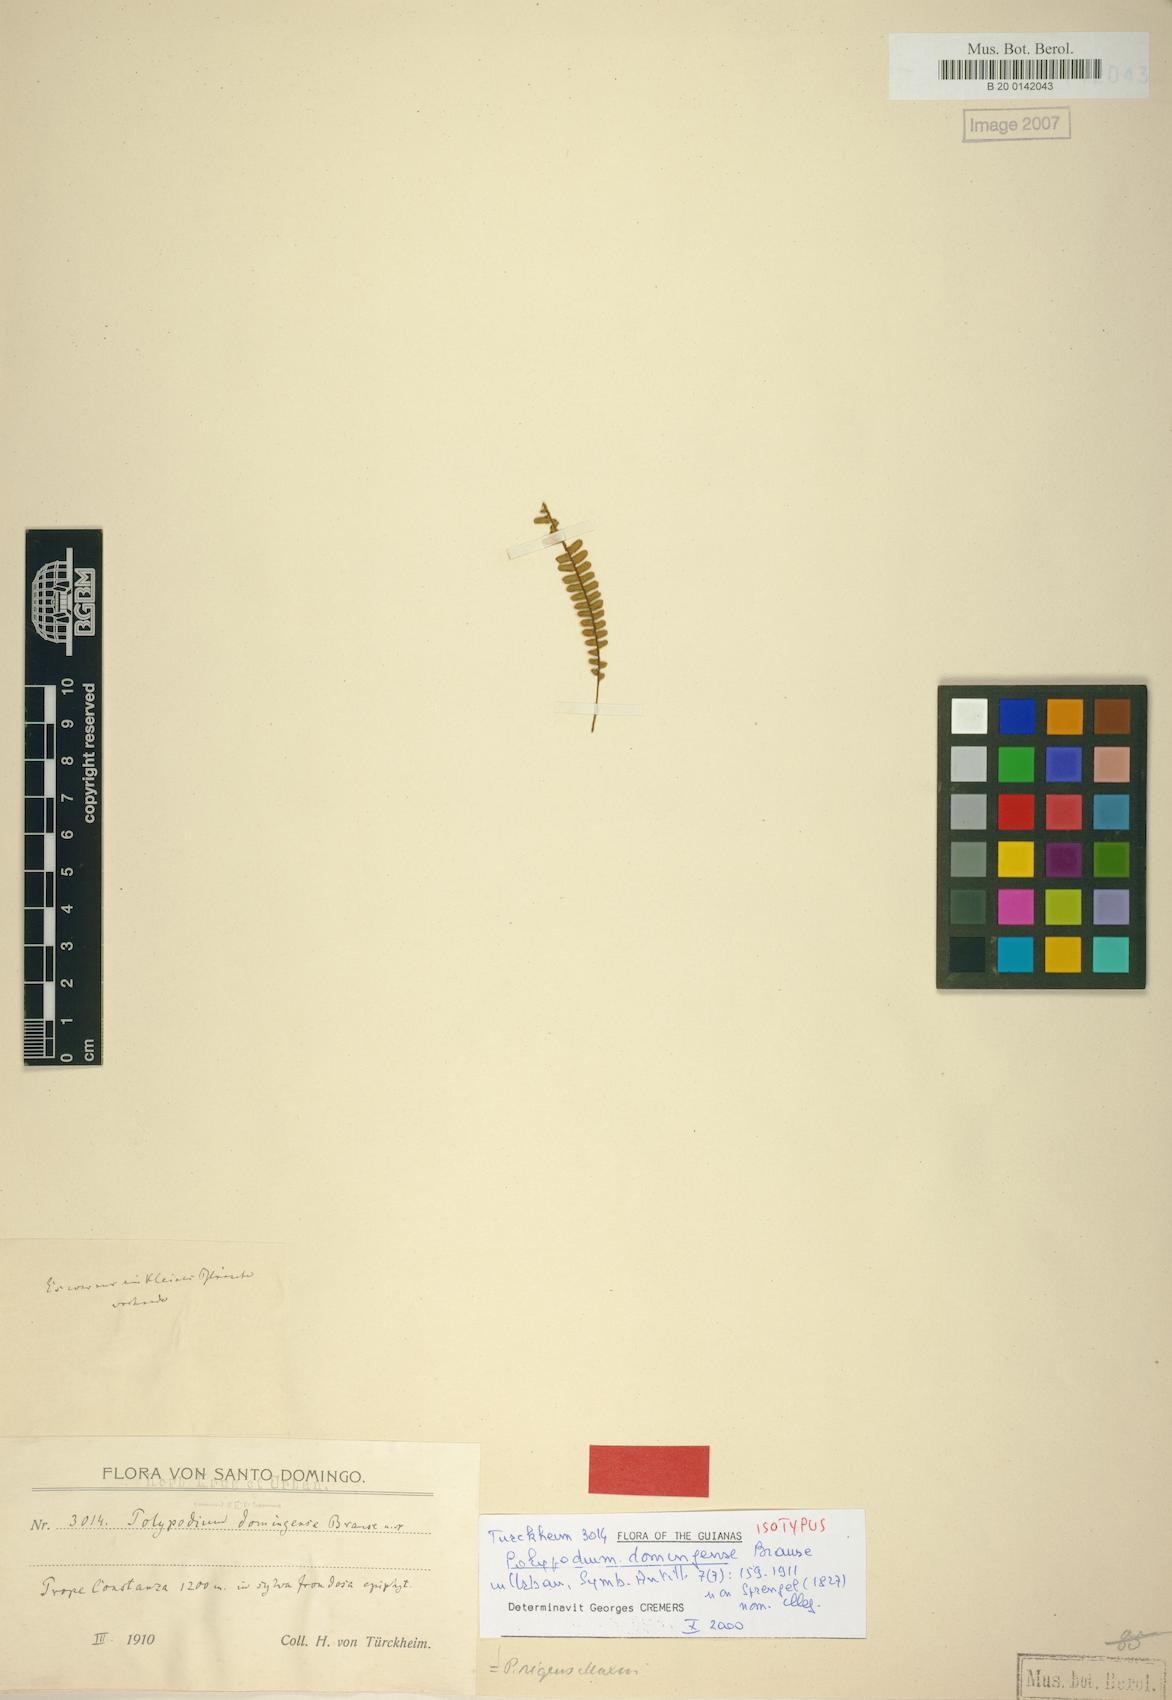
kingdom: Plantae
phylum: Tracheophyta
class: Polypodiopsida
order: Polypodiales
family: Polypodiaceae
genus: Melpomene
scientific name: Melpomene xiphopteroides
